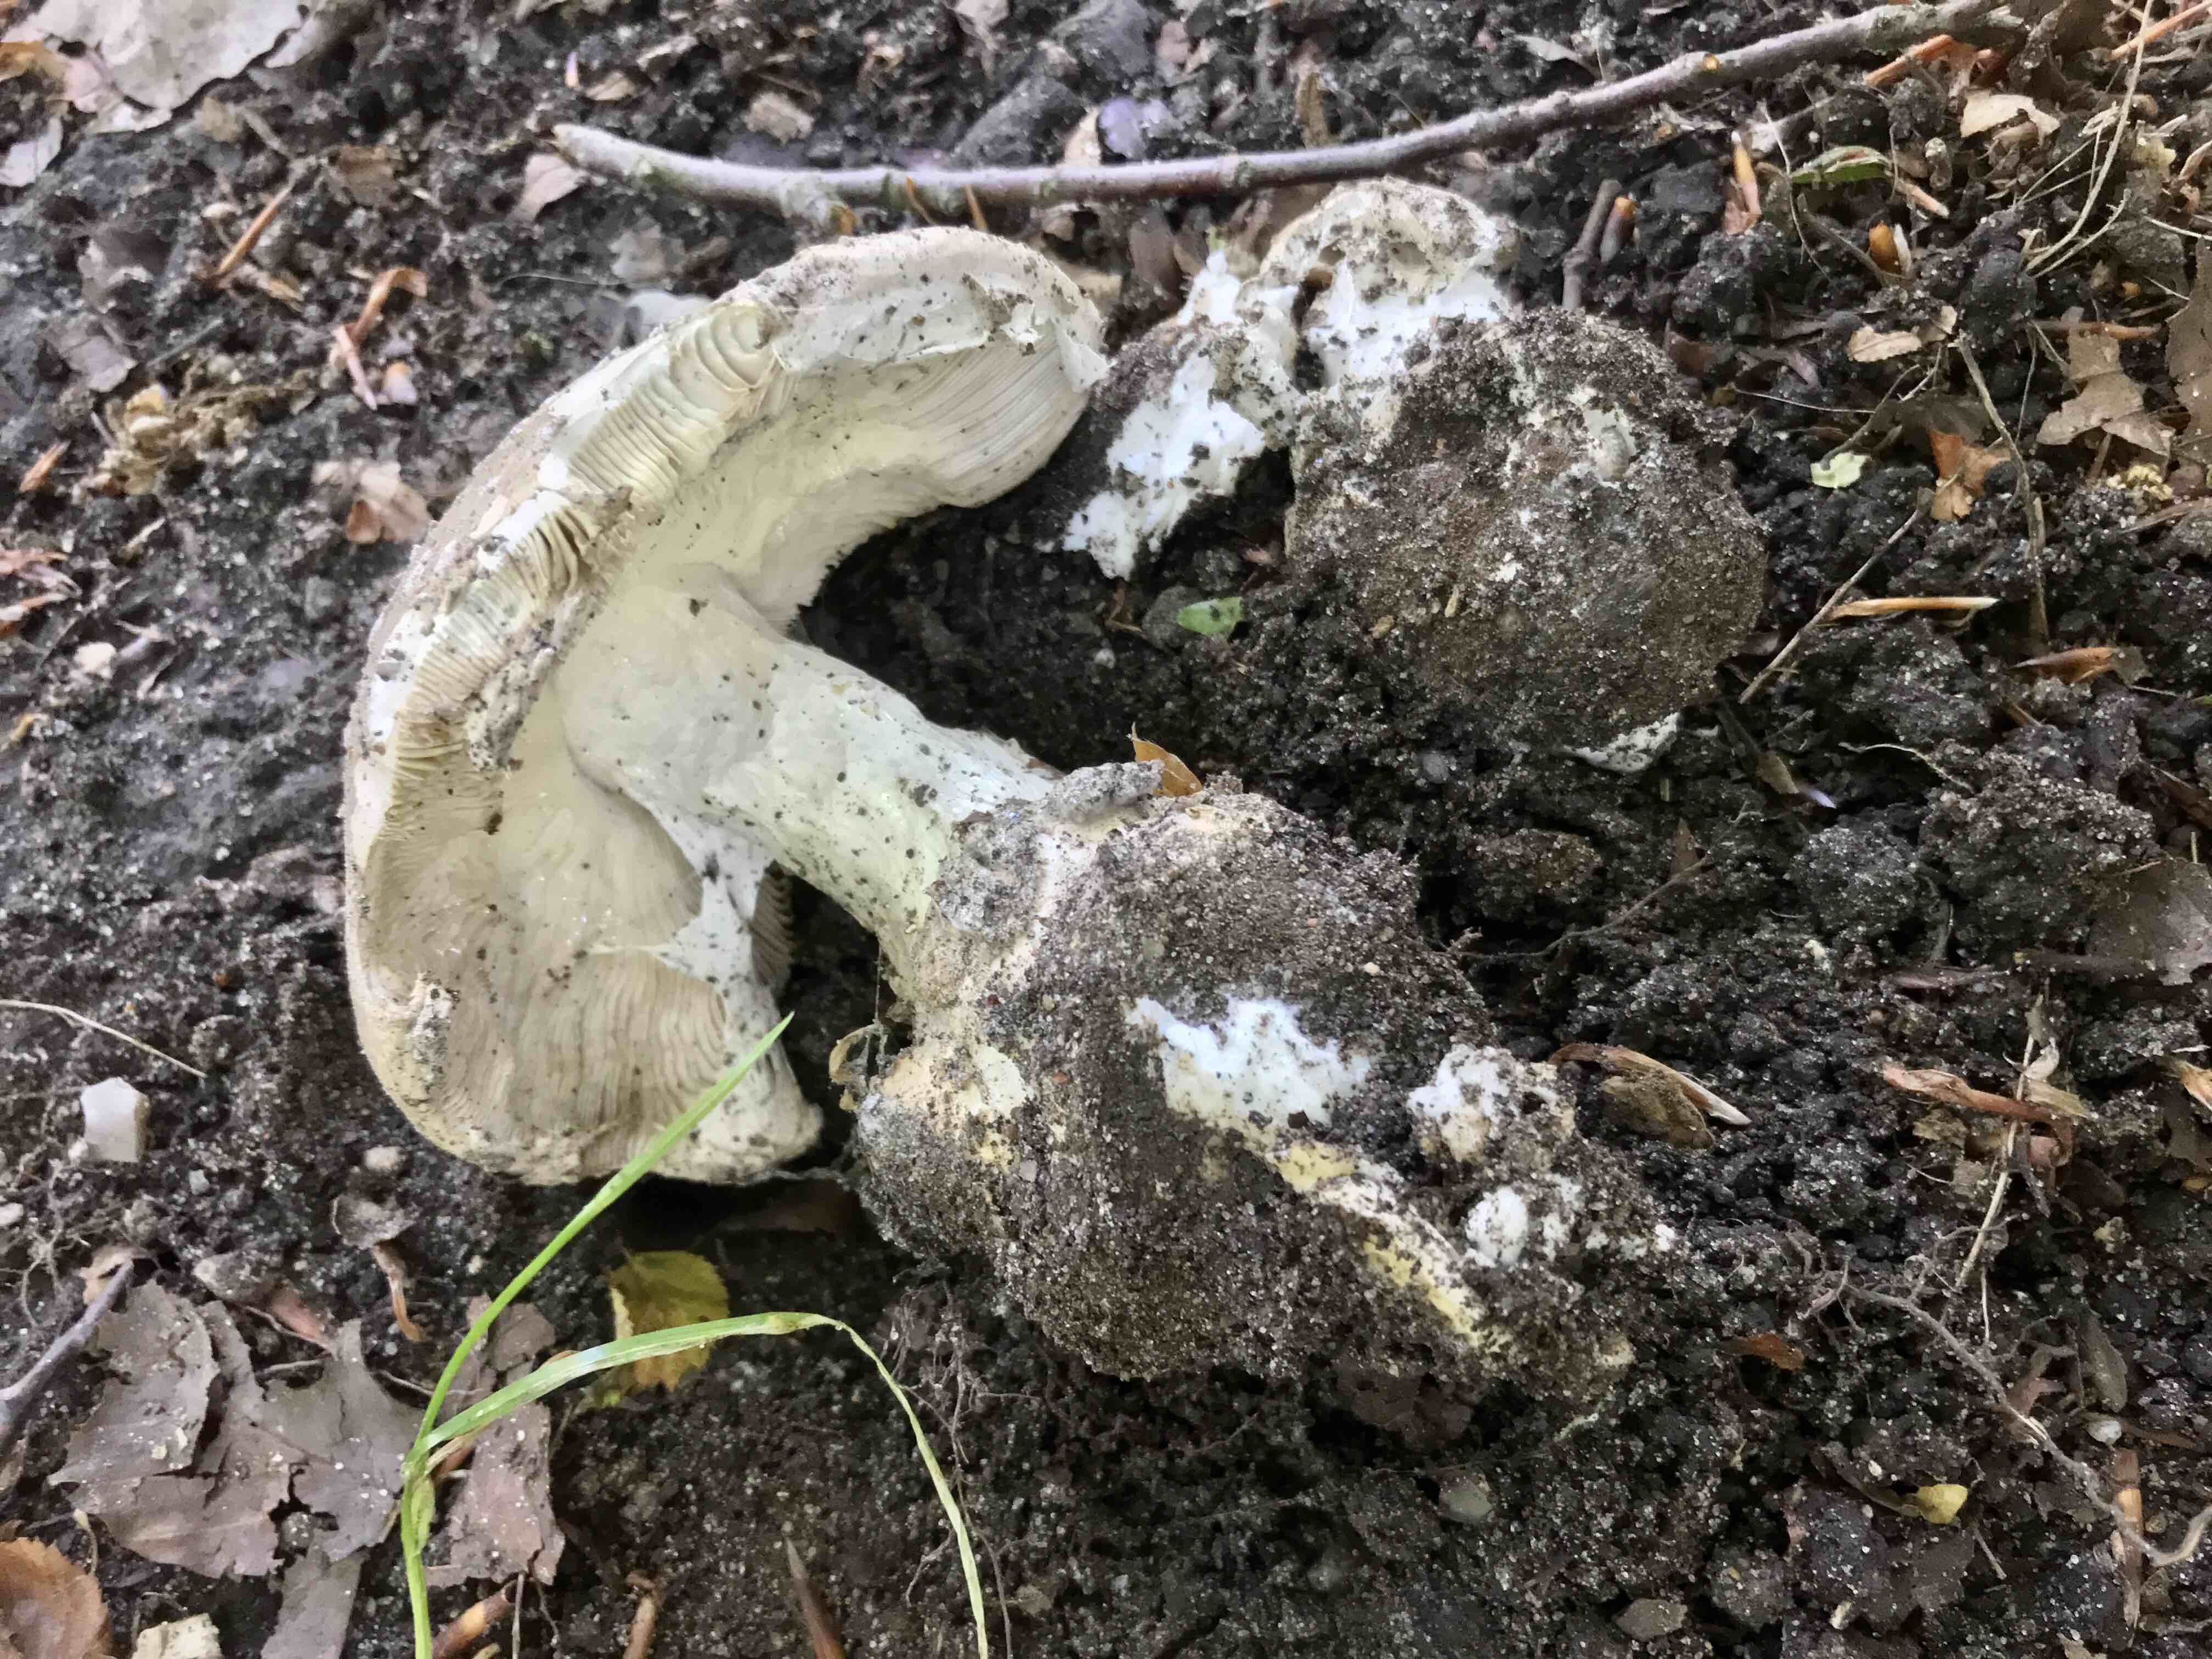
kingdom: Fungi
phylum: Basidiomycota
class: Agaricomycetes
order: Agaricales
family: Amanitaceae
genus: Amanita
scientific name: Amanita
